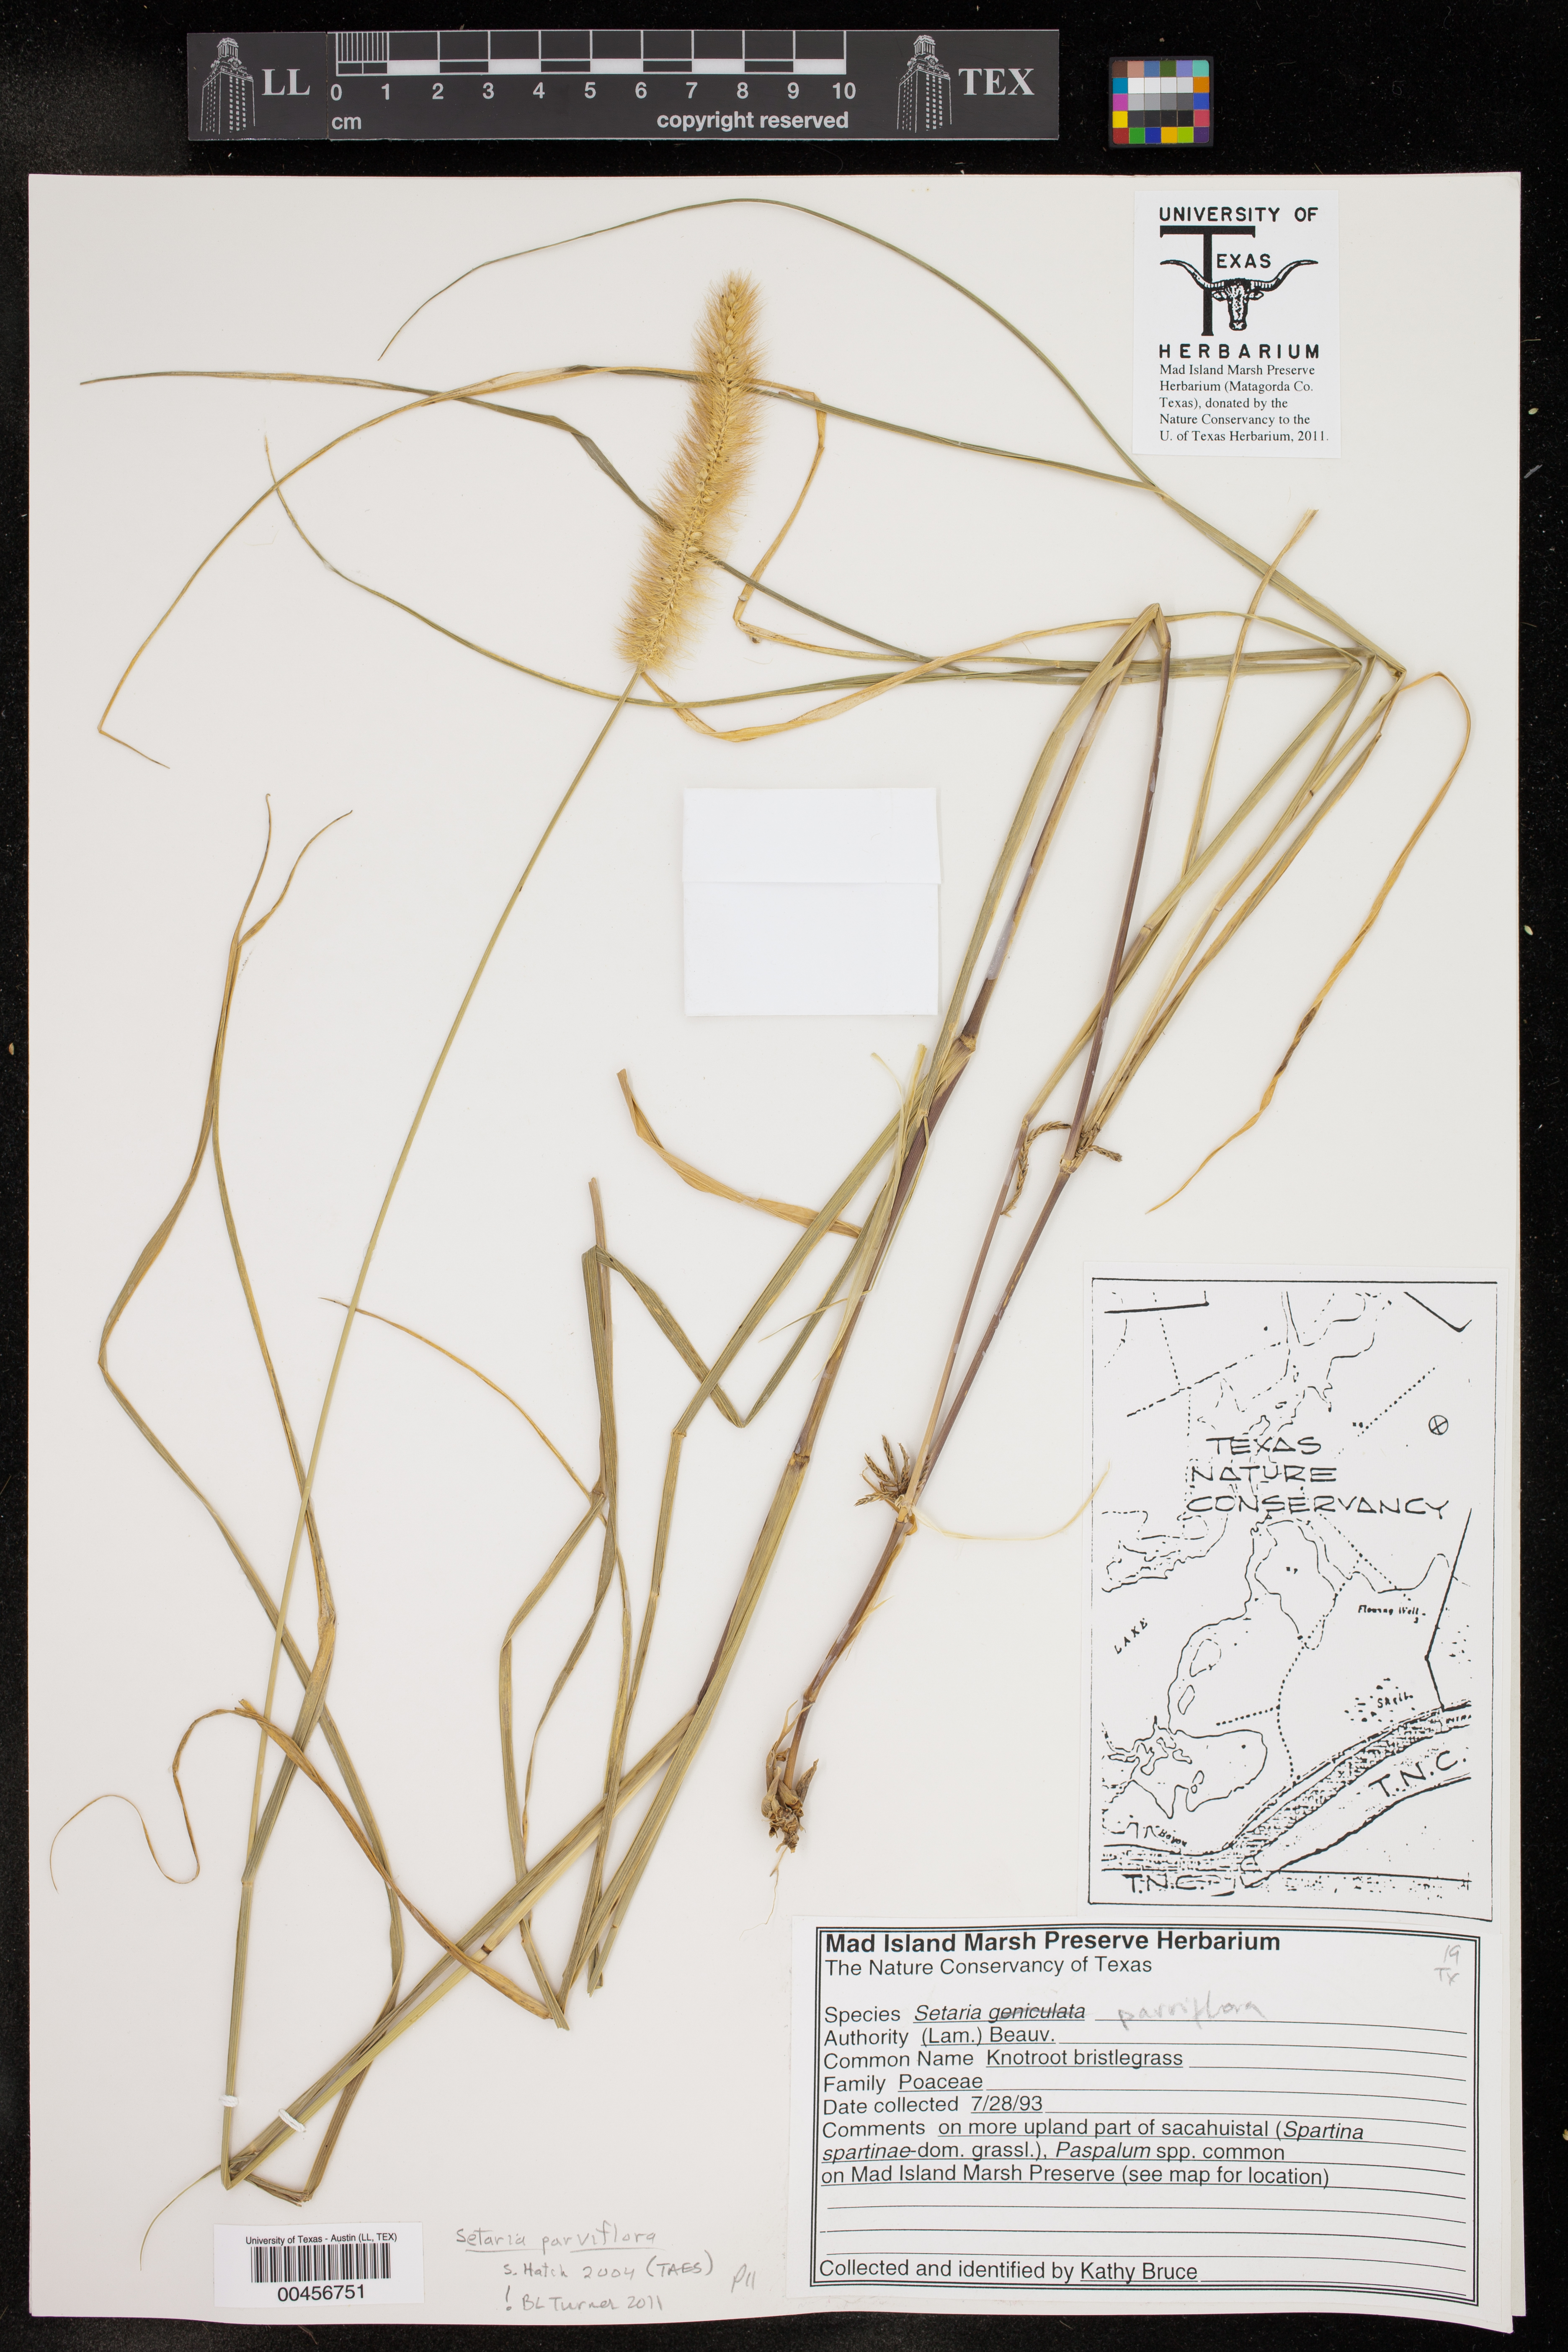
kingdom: Plantae
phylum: Tracheophyta
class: Liliopsida
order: Poales
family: Poaceae
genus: Setaria
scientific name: Setaria parviflora
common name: Knotroot bristle-grass
